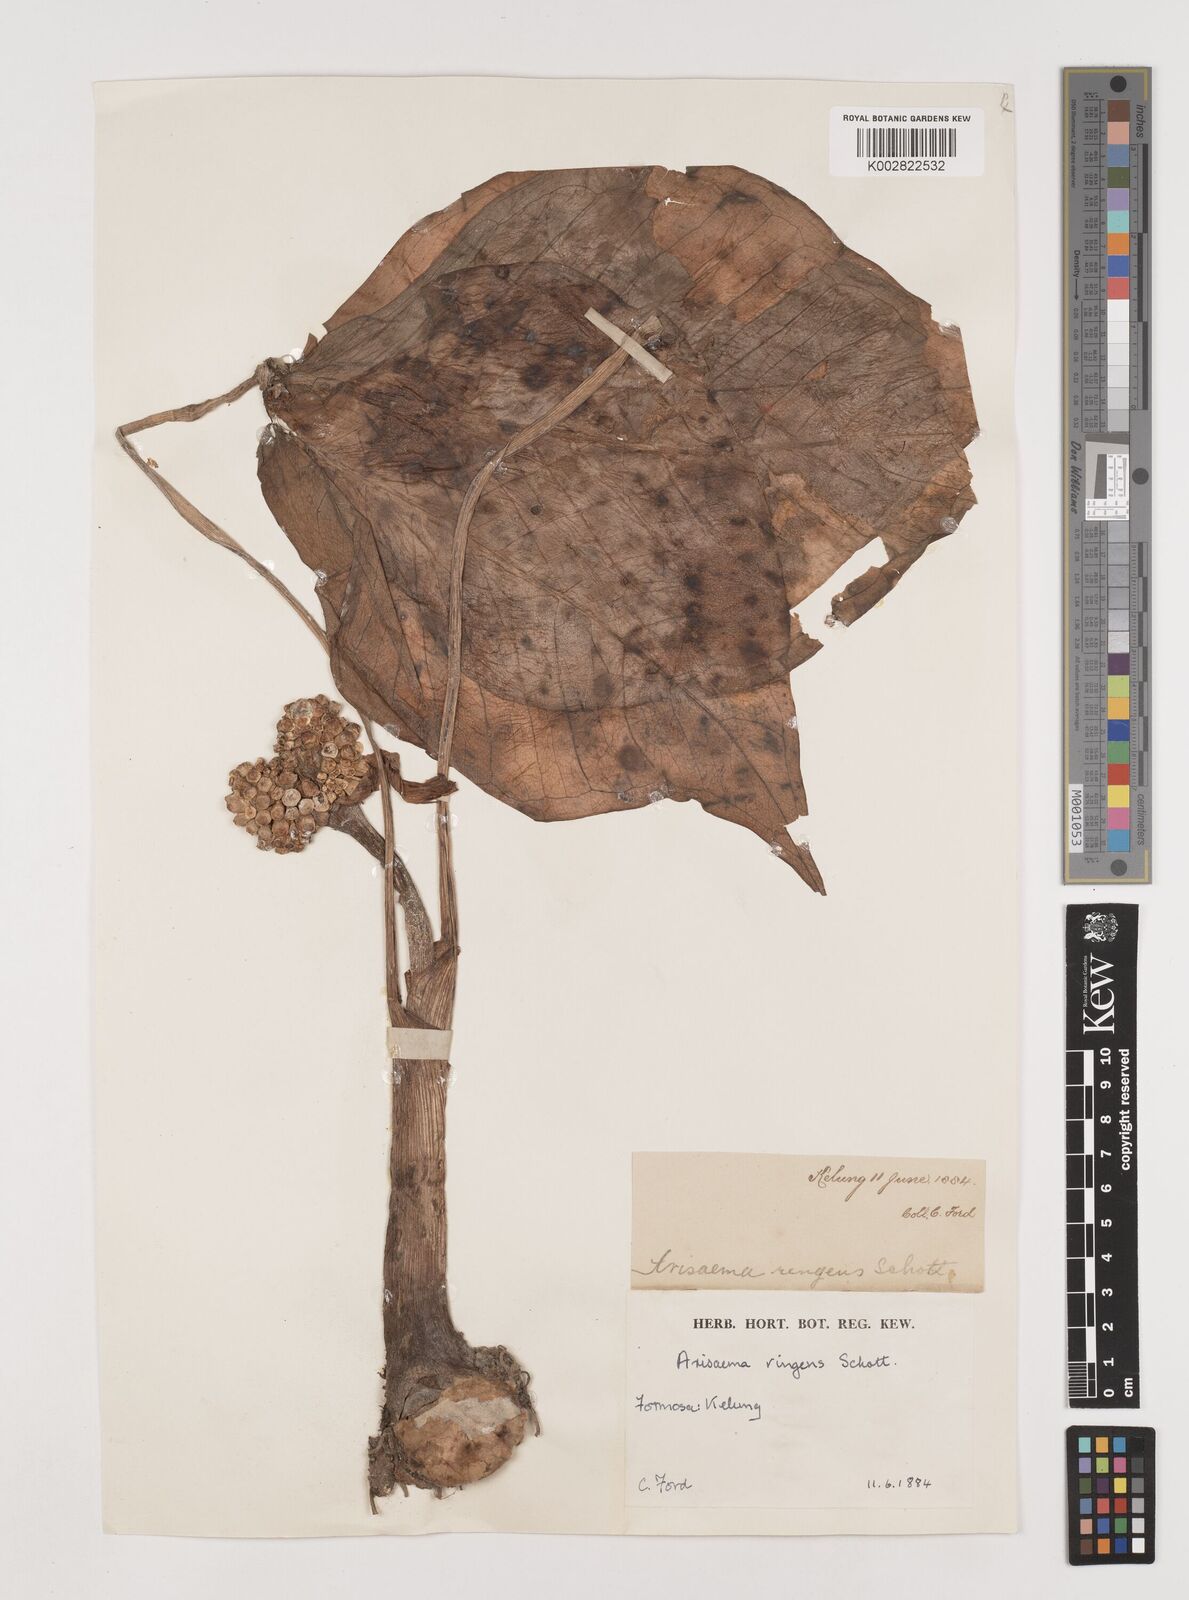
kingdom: Plantae
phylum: Tracheophyta
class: Liliopsida
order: Alismatales
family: Araceae
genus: Arisaema
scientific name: Arisaema ringens
